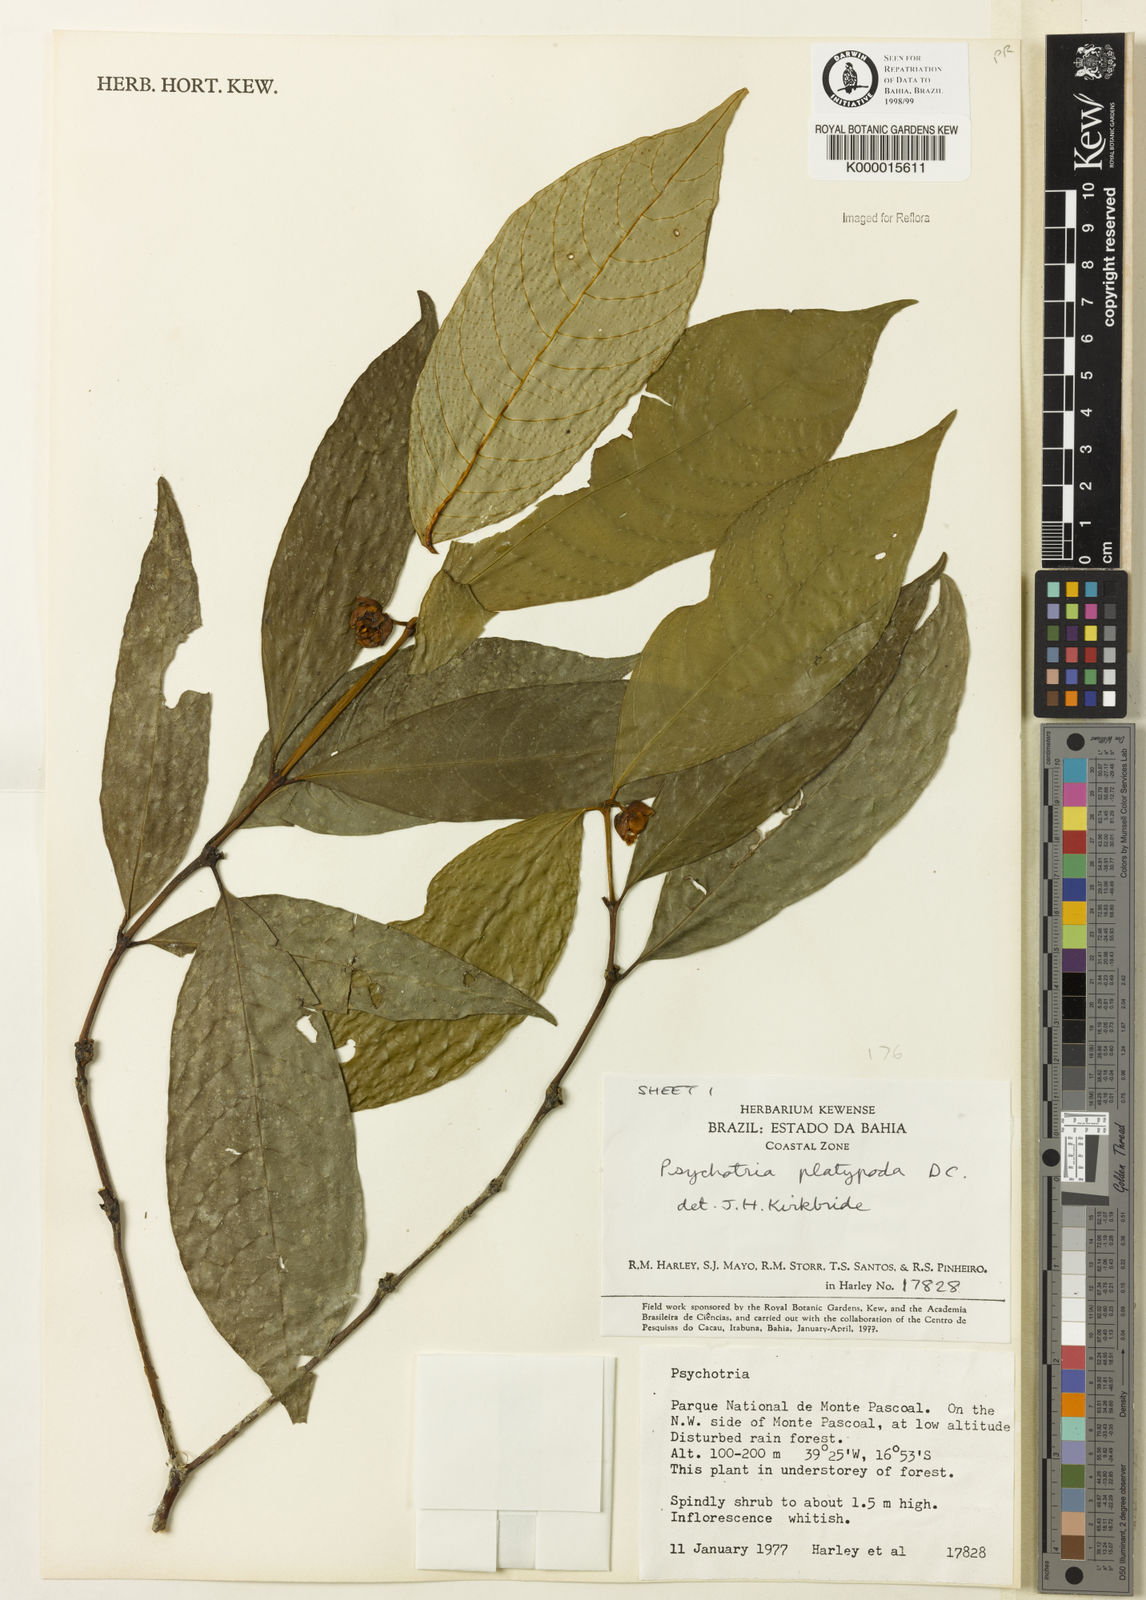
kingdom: Plantae
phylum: Tracheophyta
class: Magnoliopsida
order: Gentianales
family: Rubiaceae
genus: Palicourea
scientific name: Palicourea dichotoma
